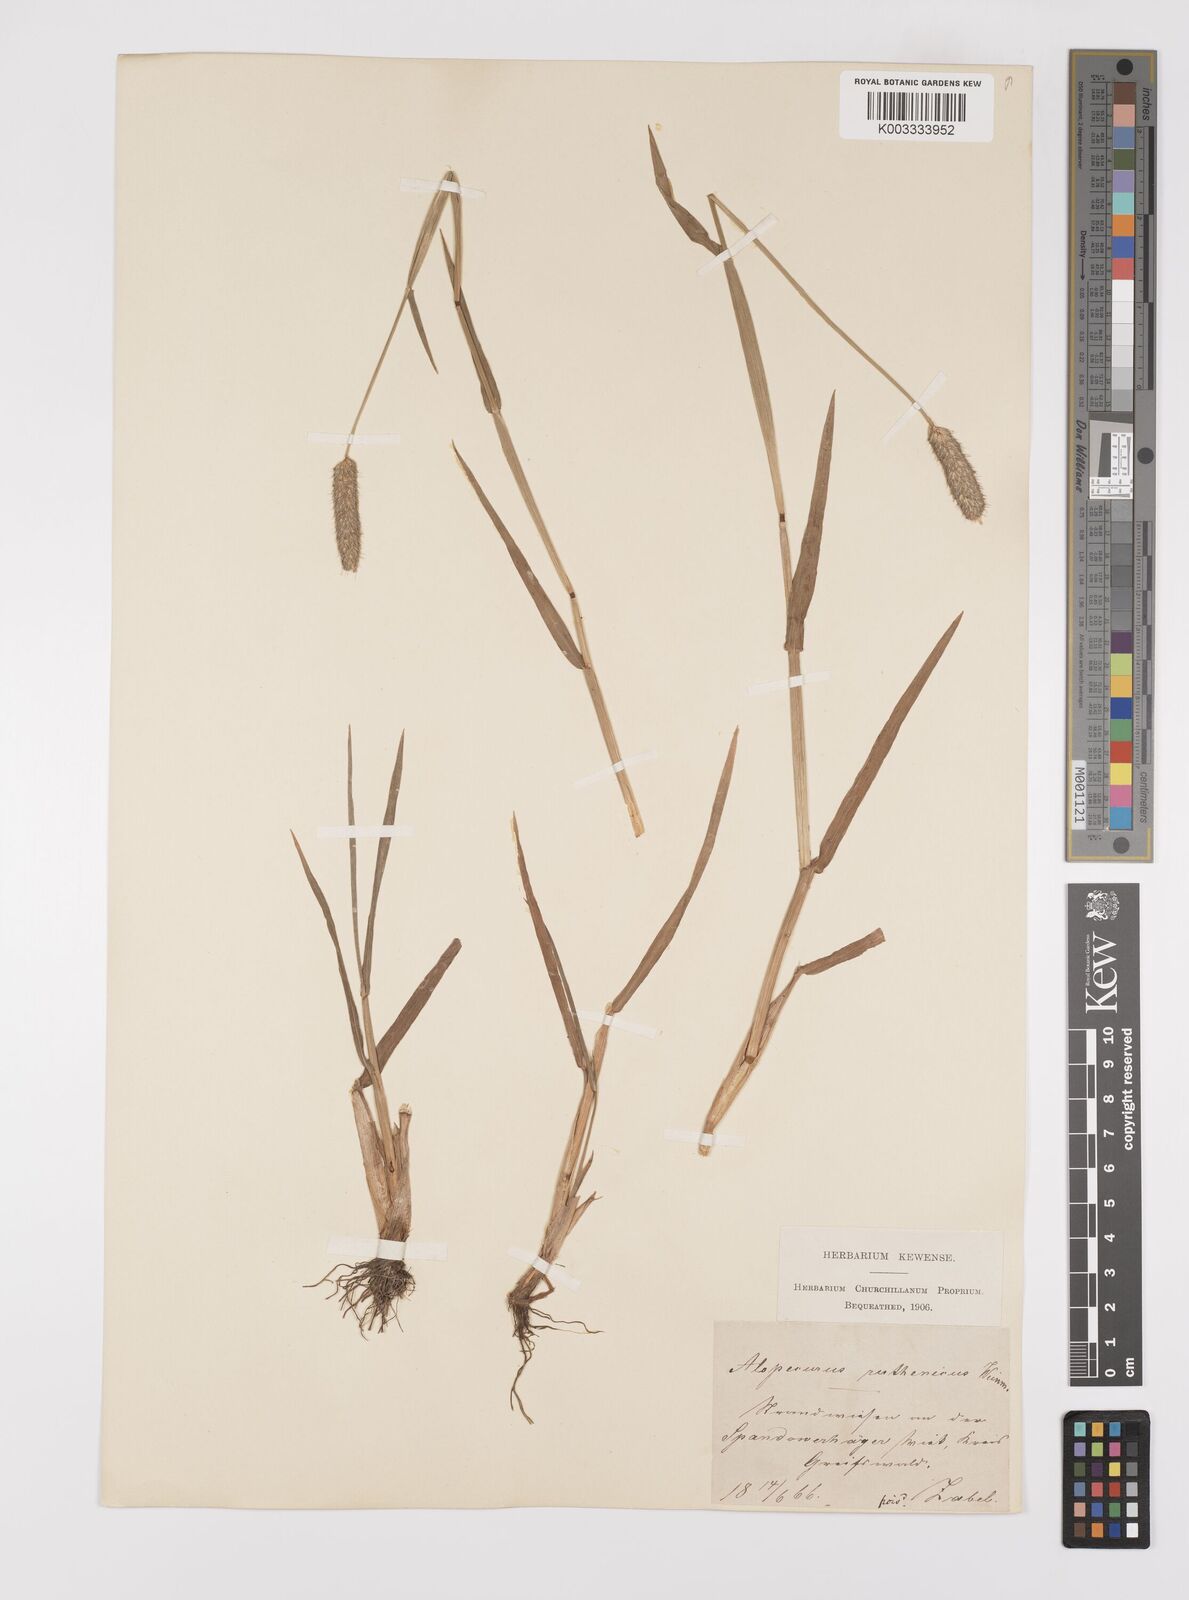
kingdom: Plantae
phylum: Tracheophyta
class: Liliopsida
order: Poales
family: Poaceae
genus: Alopecurus
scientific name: Alopecurus arundinaceus
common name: Creeping meadow foxtail
